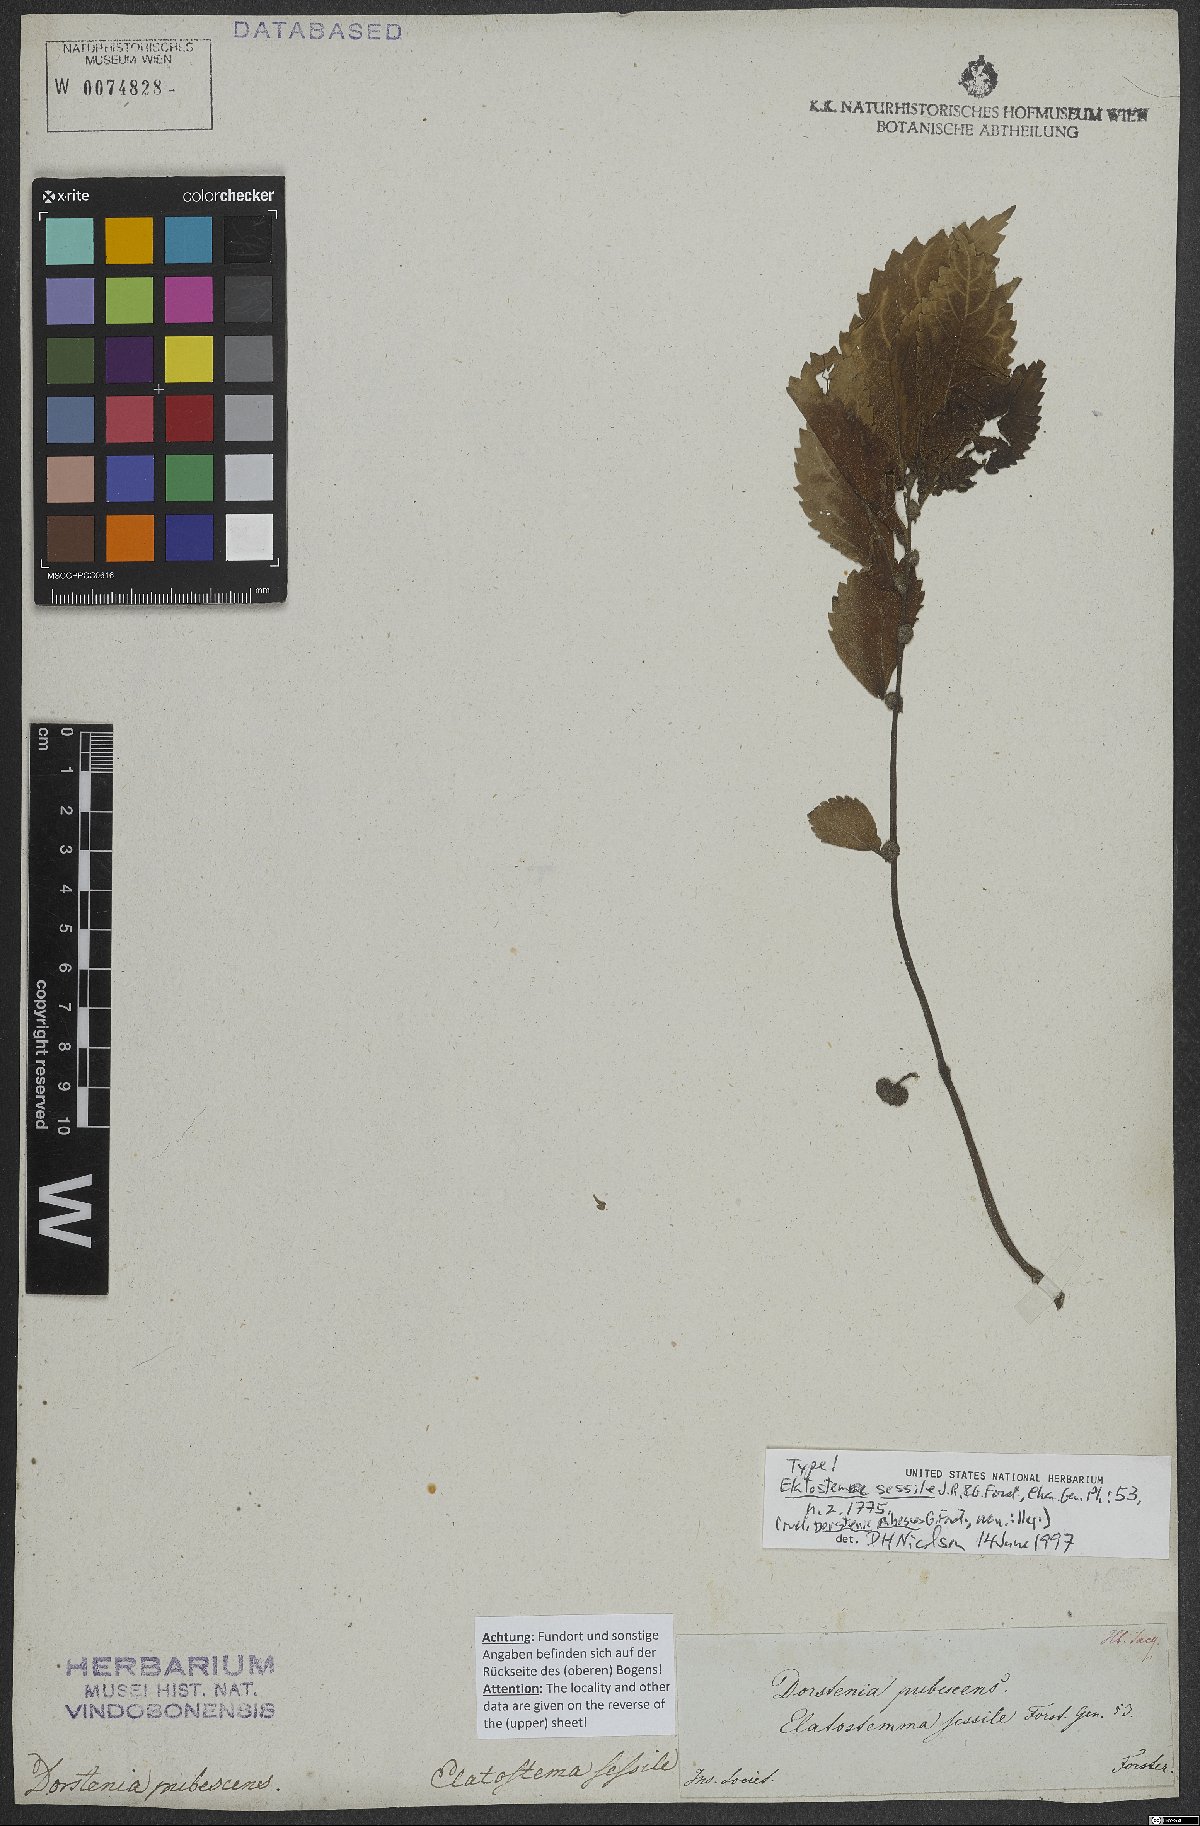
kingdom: Plantae
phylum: Tracheophyta
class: Magnoliopsida
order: Rosales
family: Urticaceae
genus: Elatostema
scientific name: Elatostema sessile
